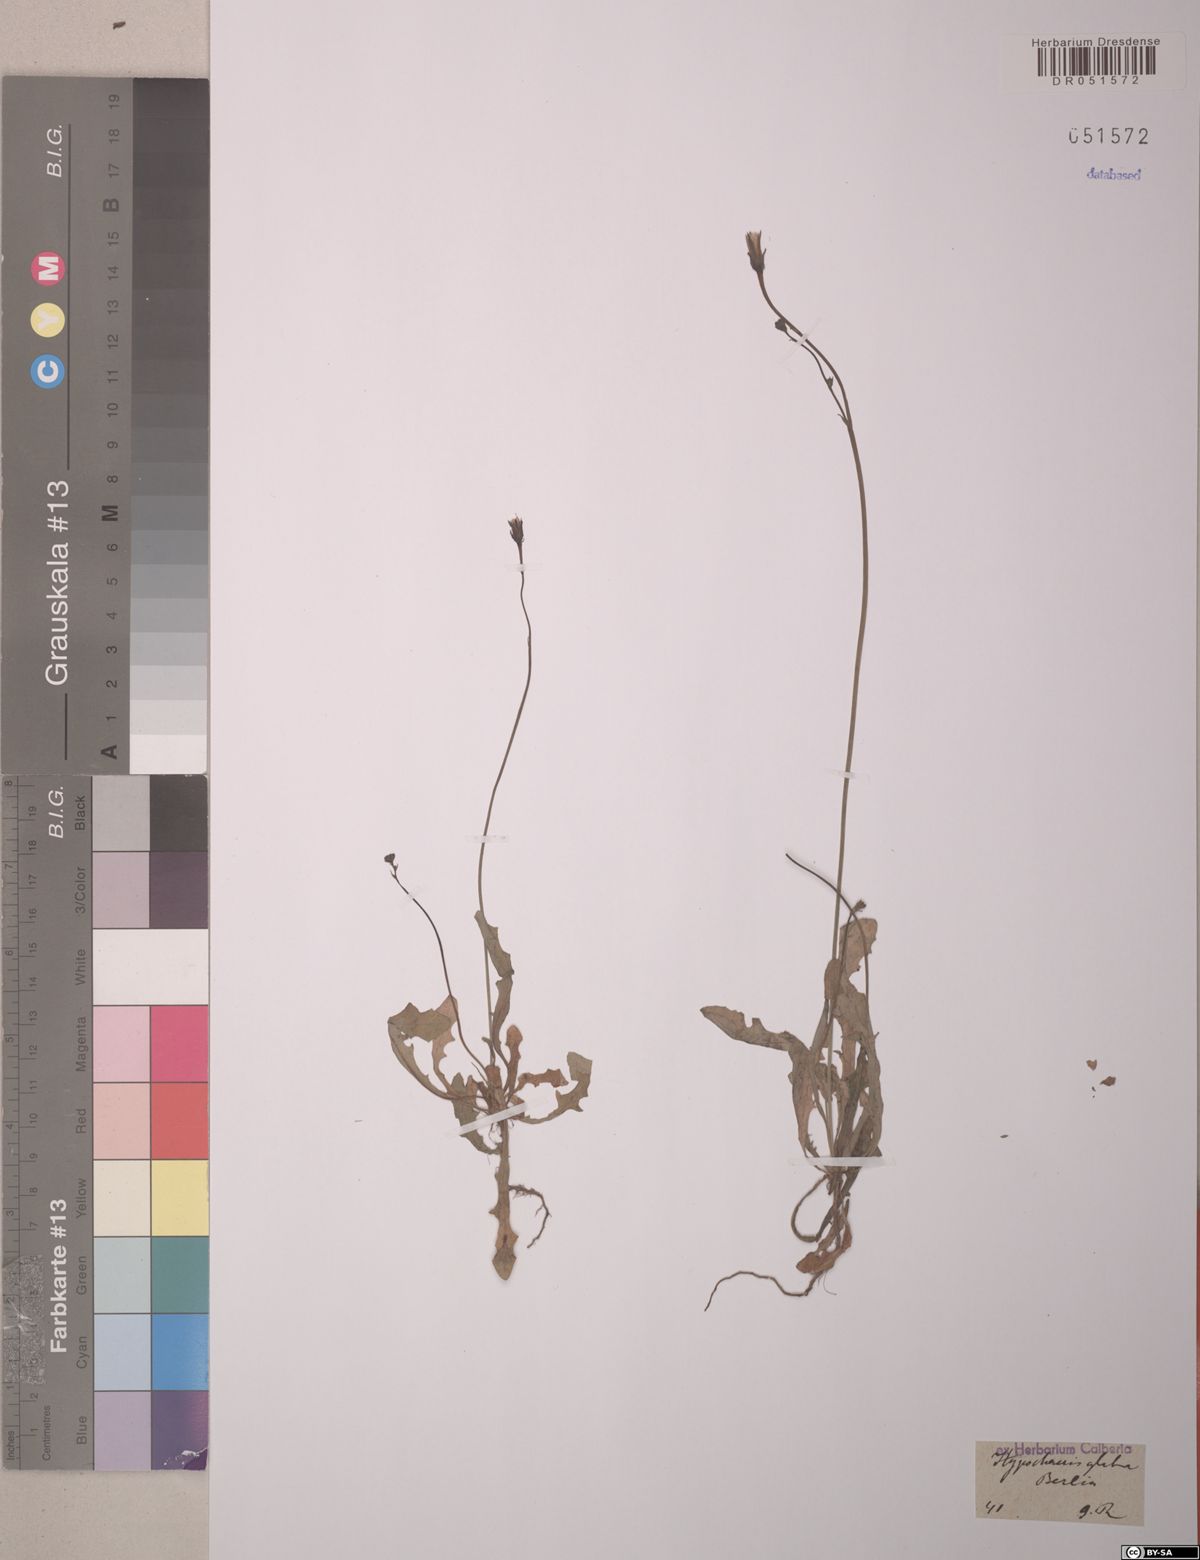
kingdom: Plantae
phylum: Tracheophyta
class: Magnoliopsida
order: Asterales
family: Asteraceae
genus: Hypochaeris
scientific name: Hypochaeris glabra
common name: Smooth catsear
